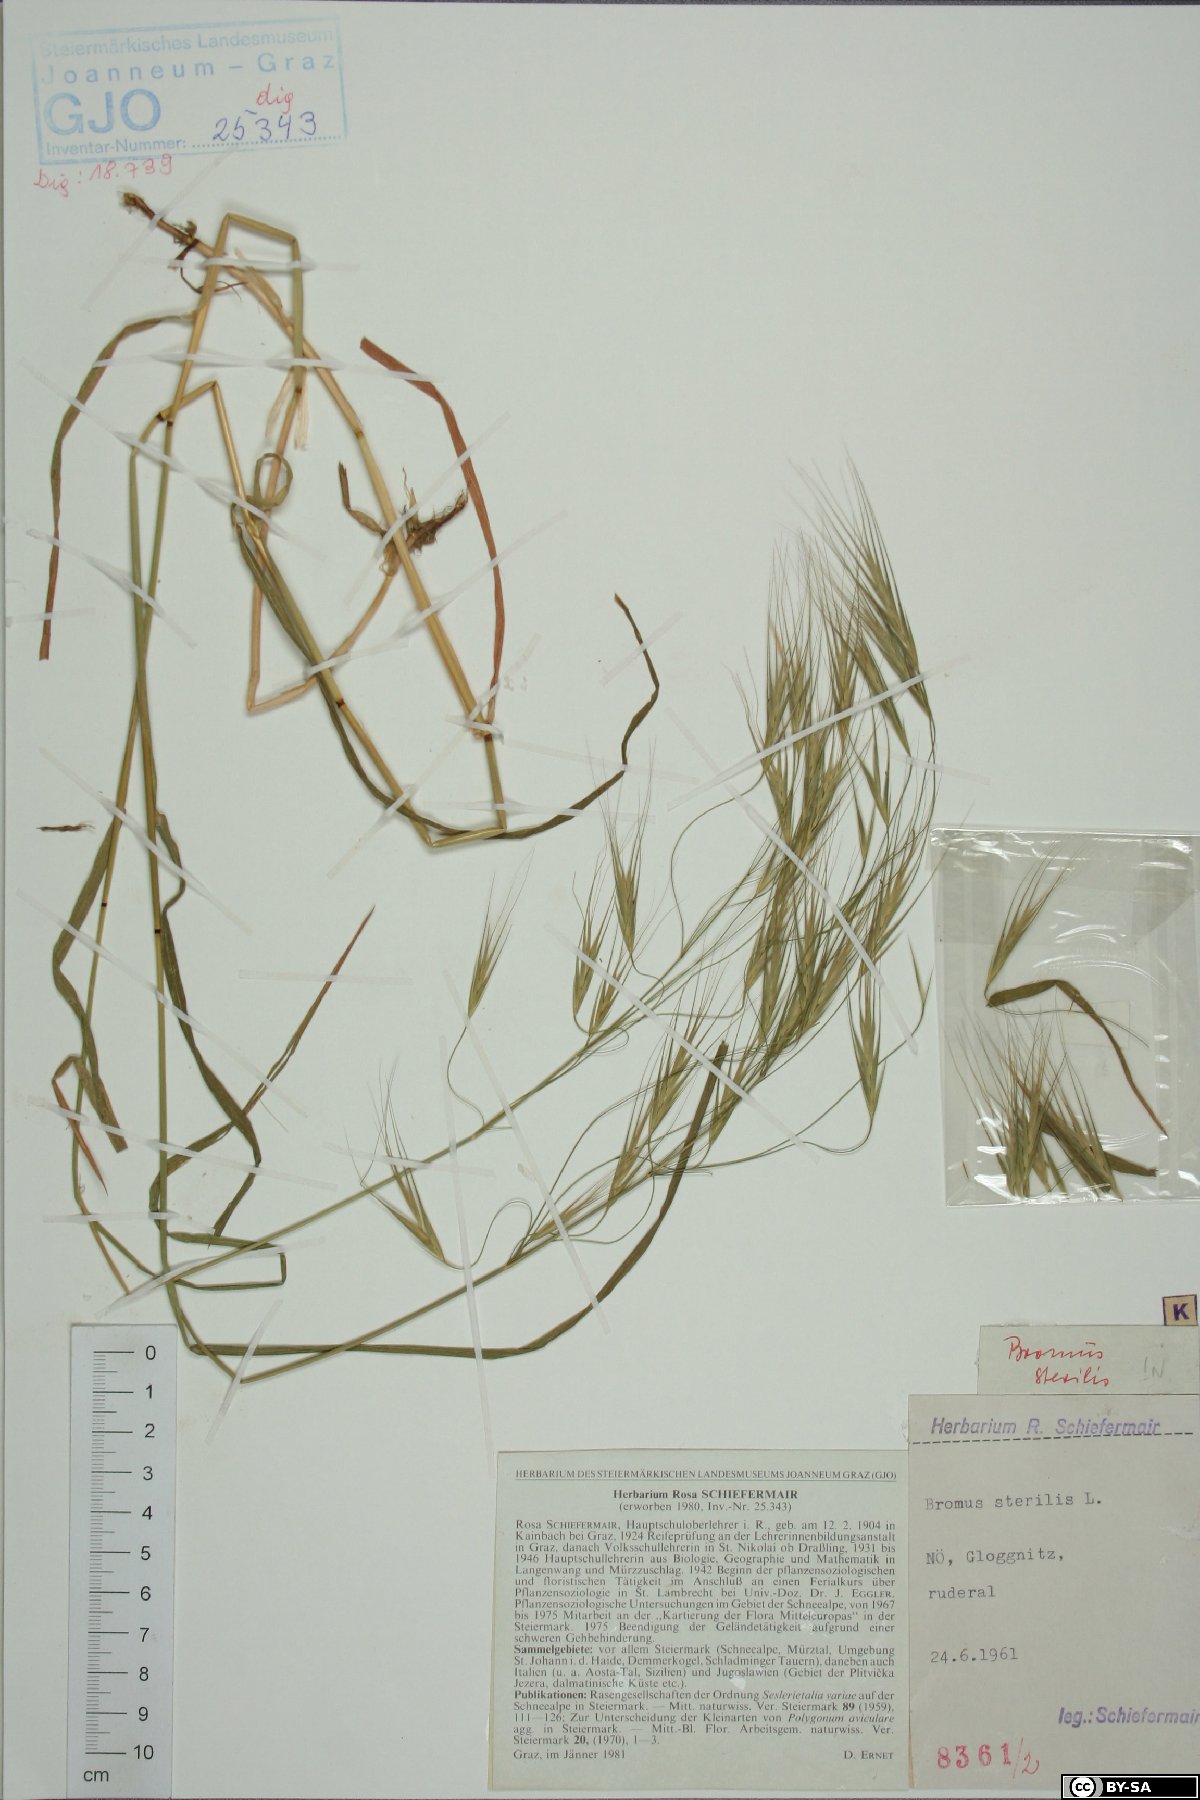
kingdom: Plantae
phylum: Tracheophyta
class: Liliopsida
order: Poales
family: Poaceae
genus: Bromus
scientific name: Bromus sterilis
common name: Poverty brome
